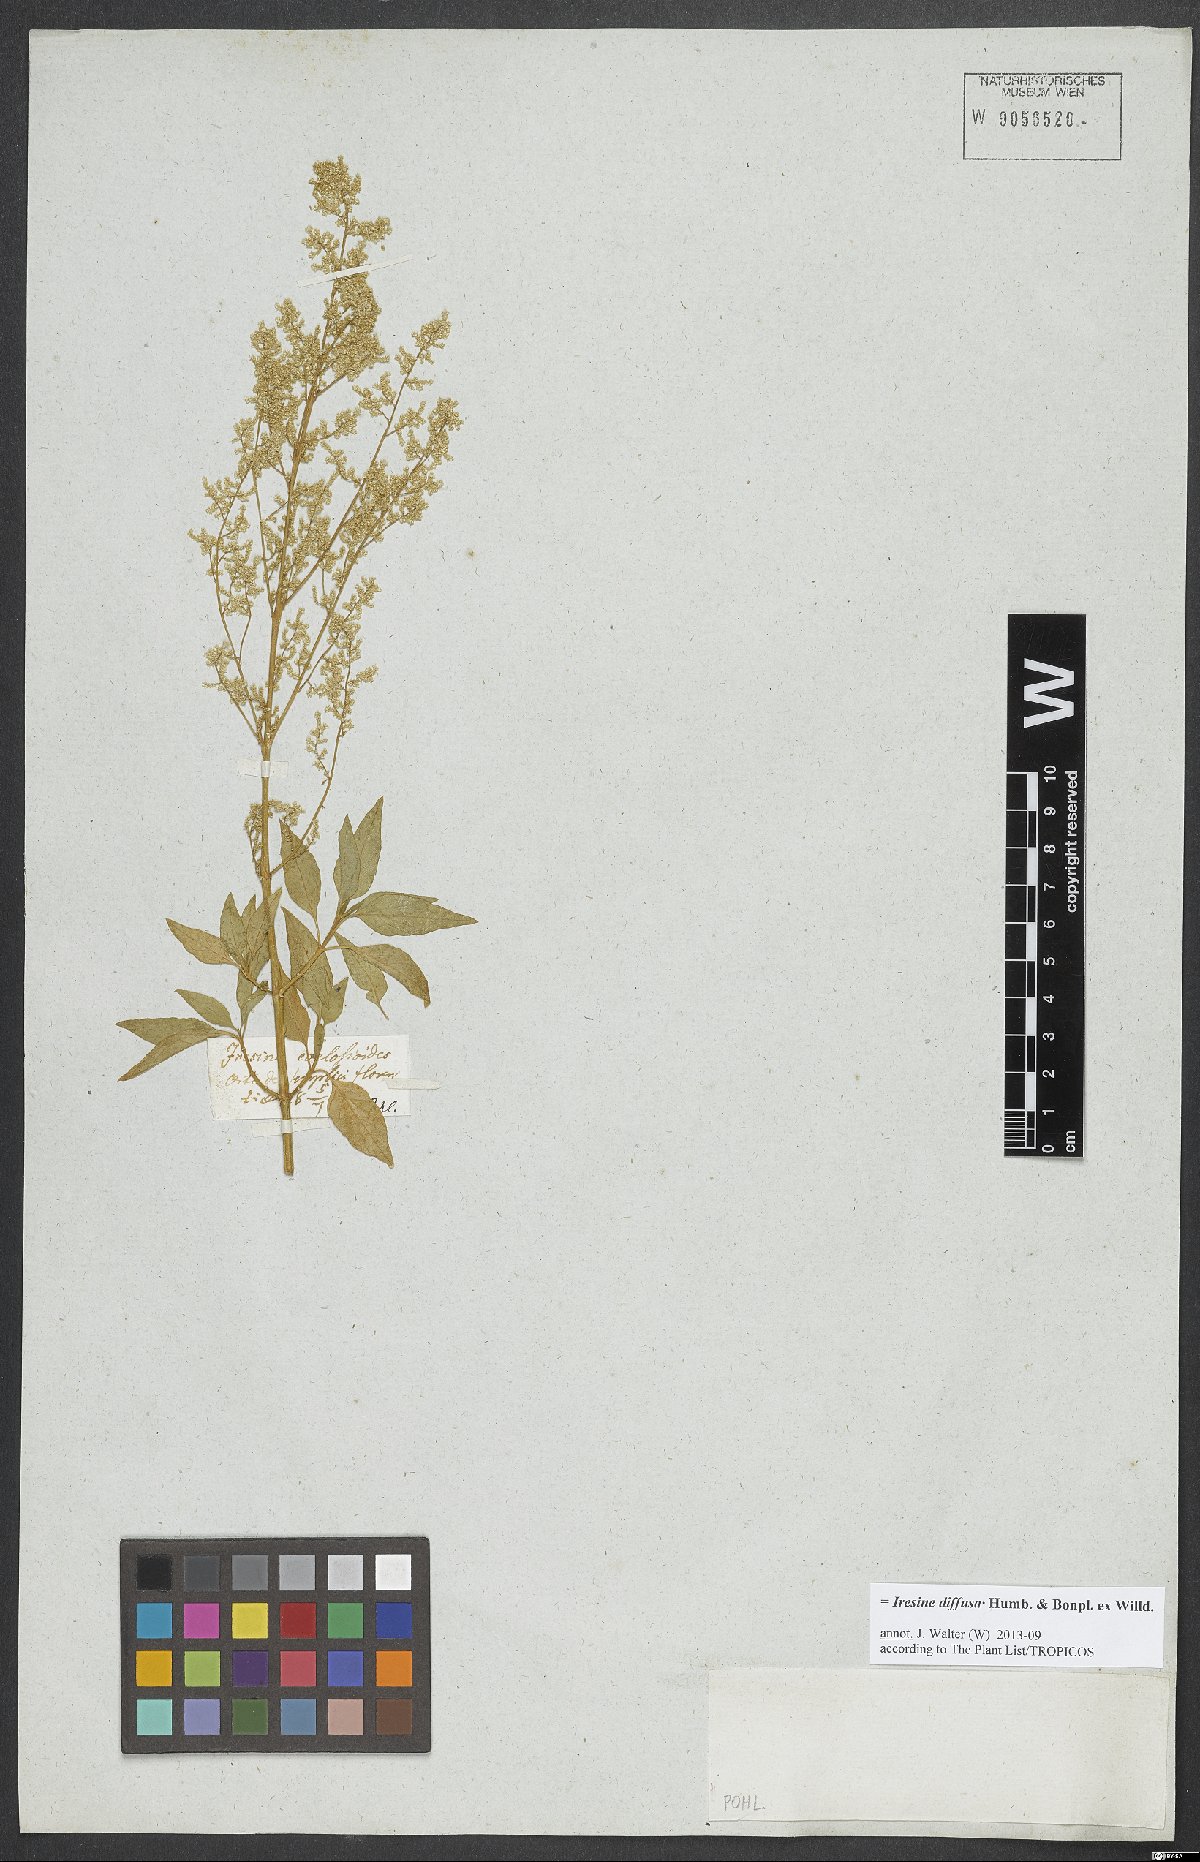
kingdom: Plantae
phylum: Tracheophyta
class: Magnoliopsida
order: Caryophyllales
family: Amaranthaceae
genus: Iresine
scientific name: Iresine diffusa
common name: Juba's-bush
